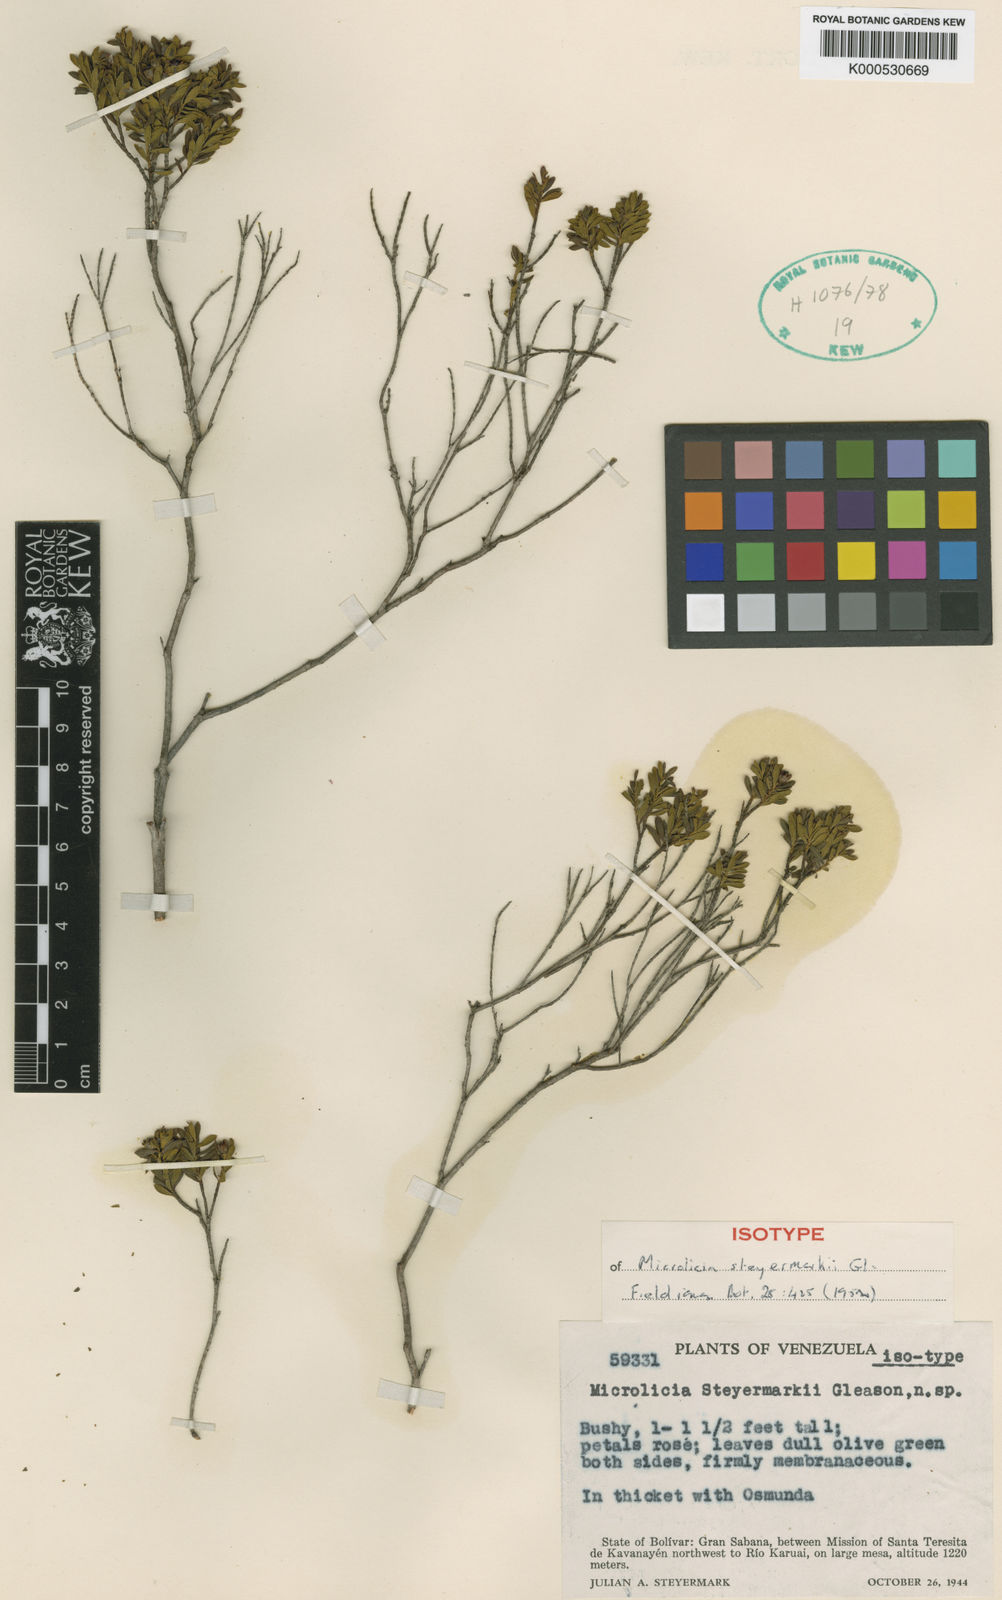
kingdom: Plantae
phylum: Tracheophyta
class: Magnoliopsida
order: Myrtales
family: Melastomataceae
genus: Microlicia
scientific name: Microlicia benthamiana
